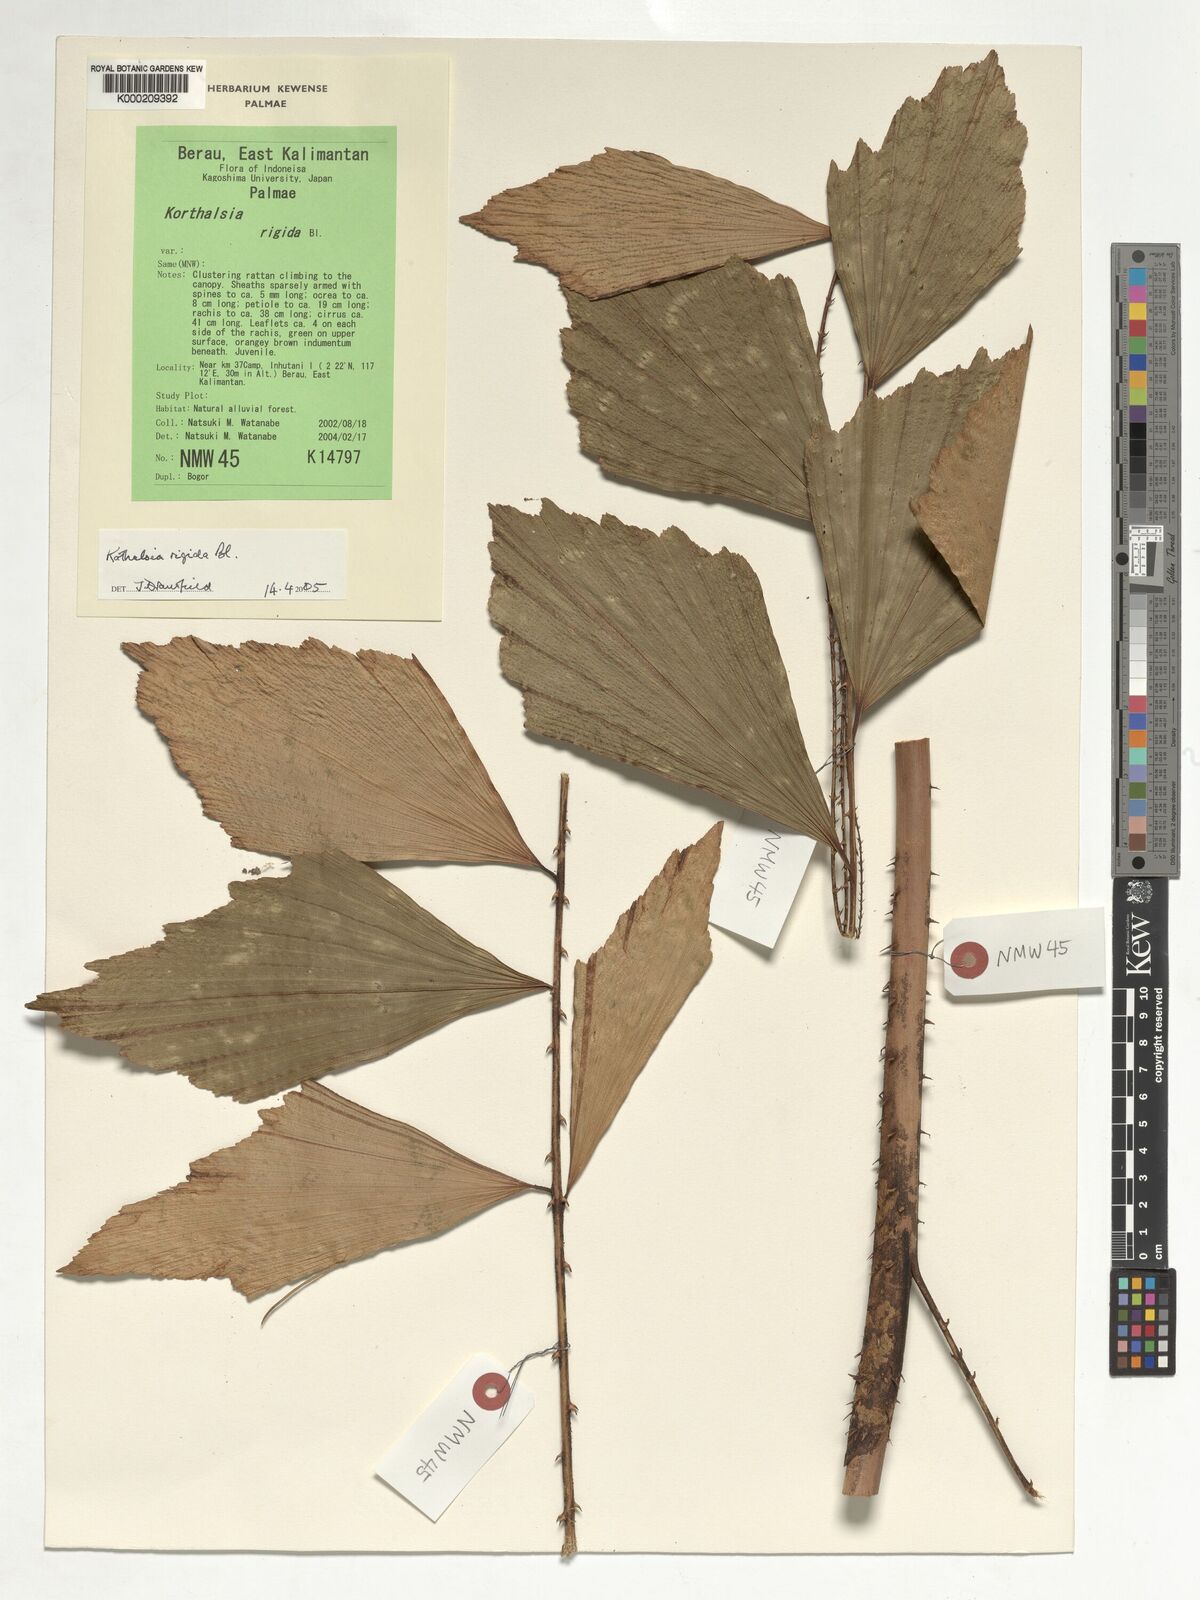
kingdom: Plantae
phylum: Tracheophyta
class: Liliopsida
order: Arecales
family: Arecaceae
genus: Korthalsia
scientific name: Korthalsia rigida
